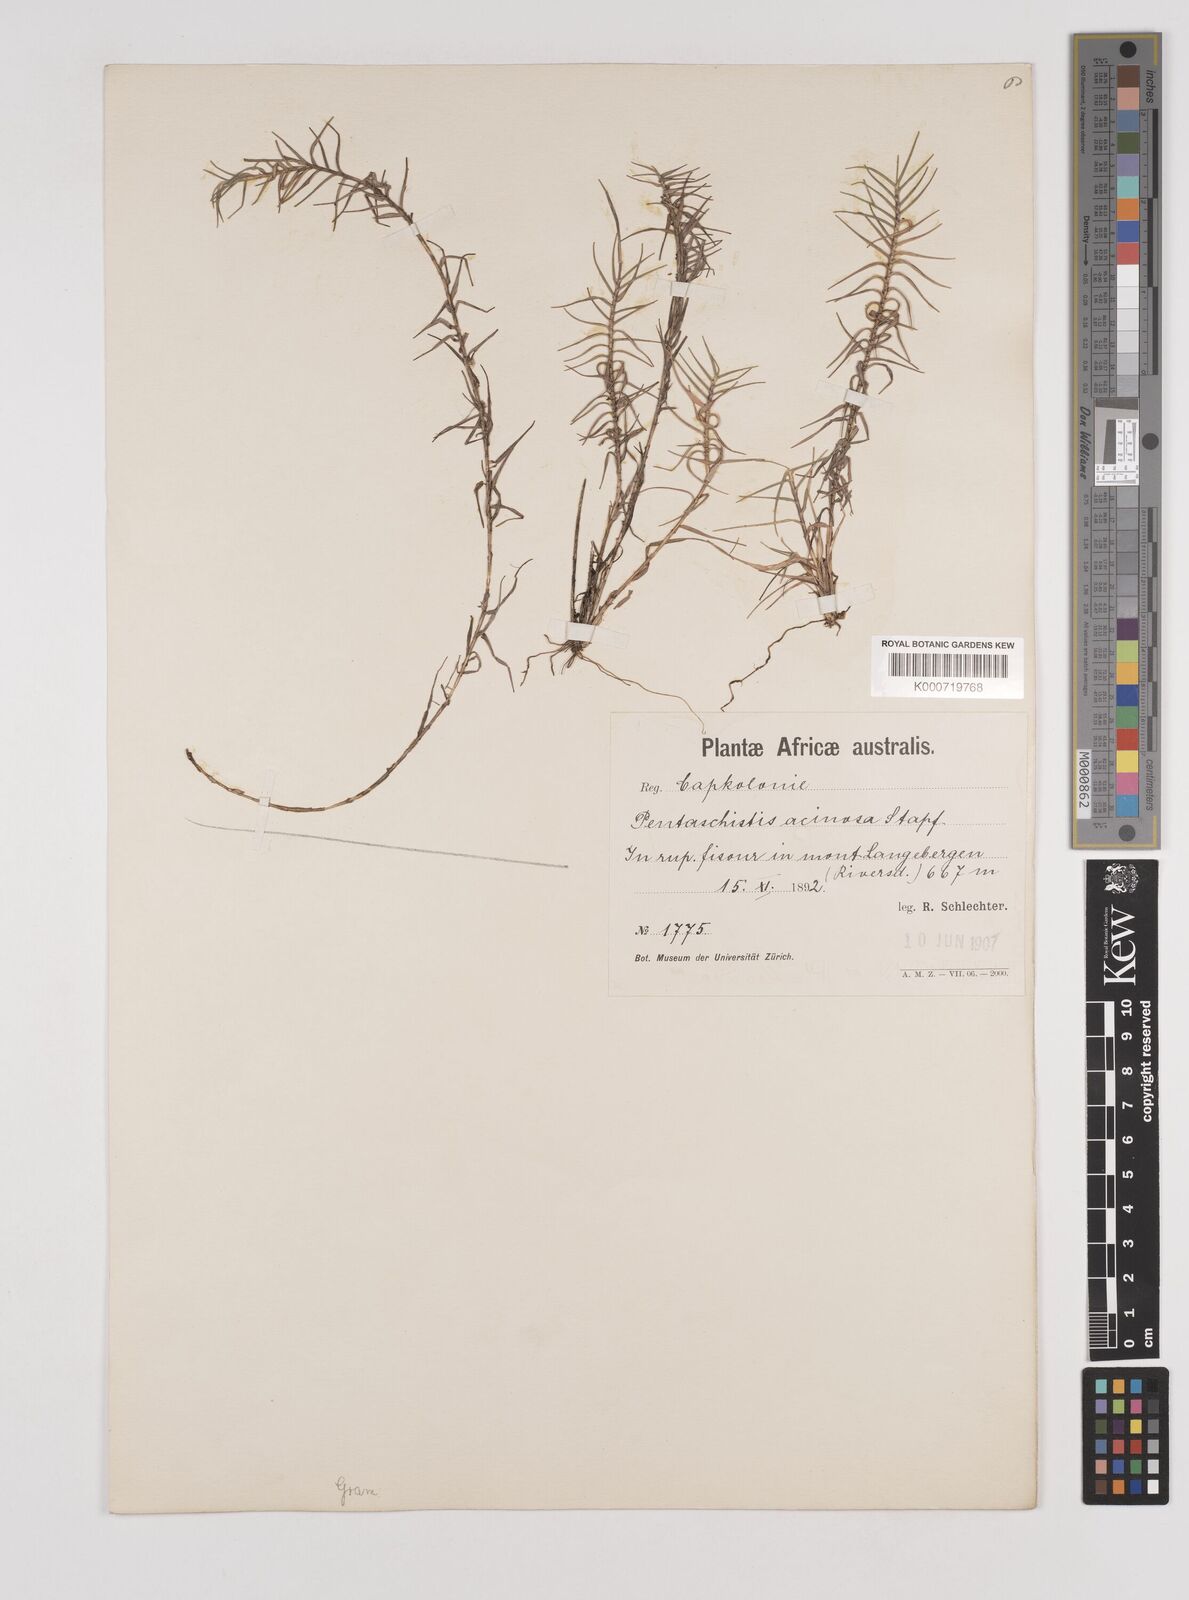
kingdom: Plantae
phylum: Tracheophyta
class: Liliopsida
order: Poales
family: Poaceae
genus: Pentameris
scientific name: Pentameris acinosa
